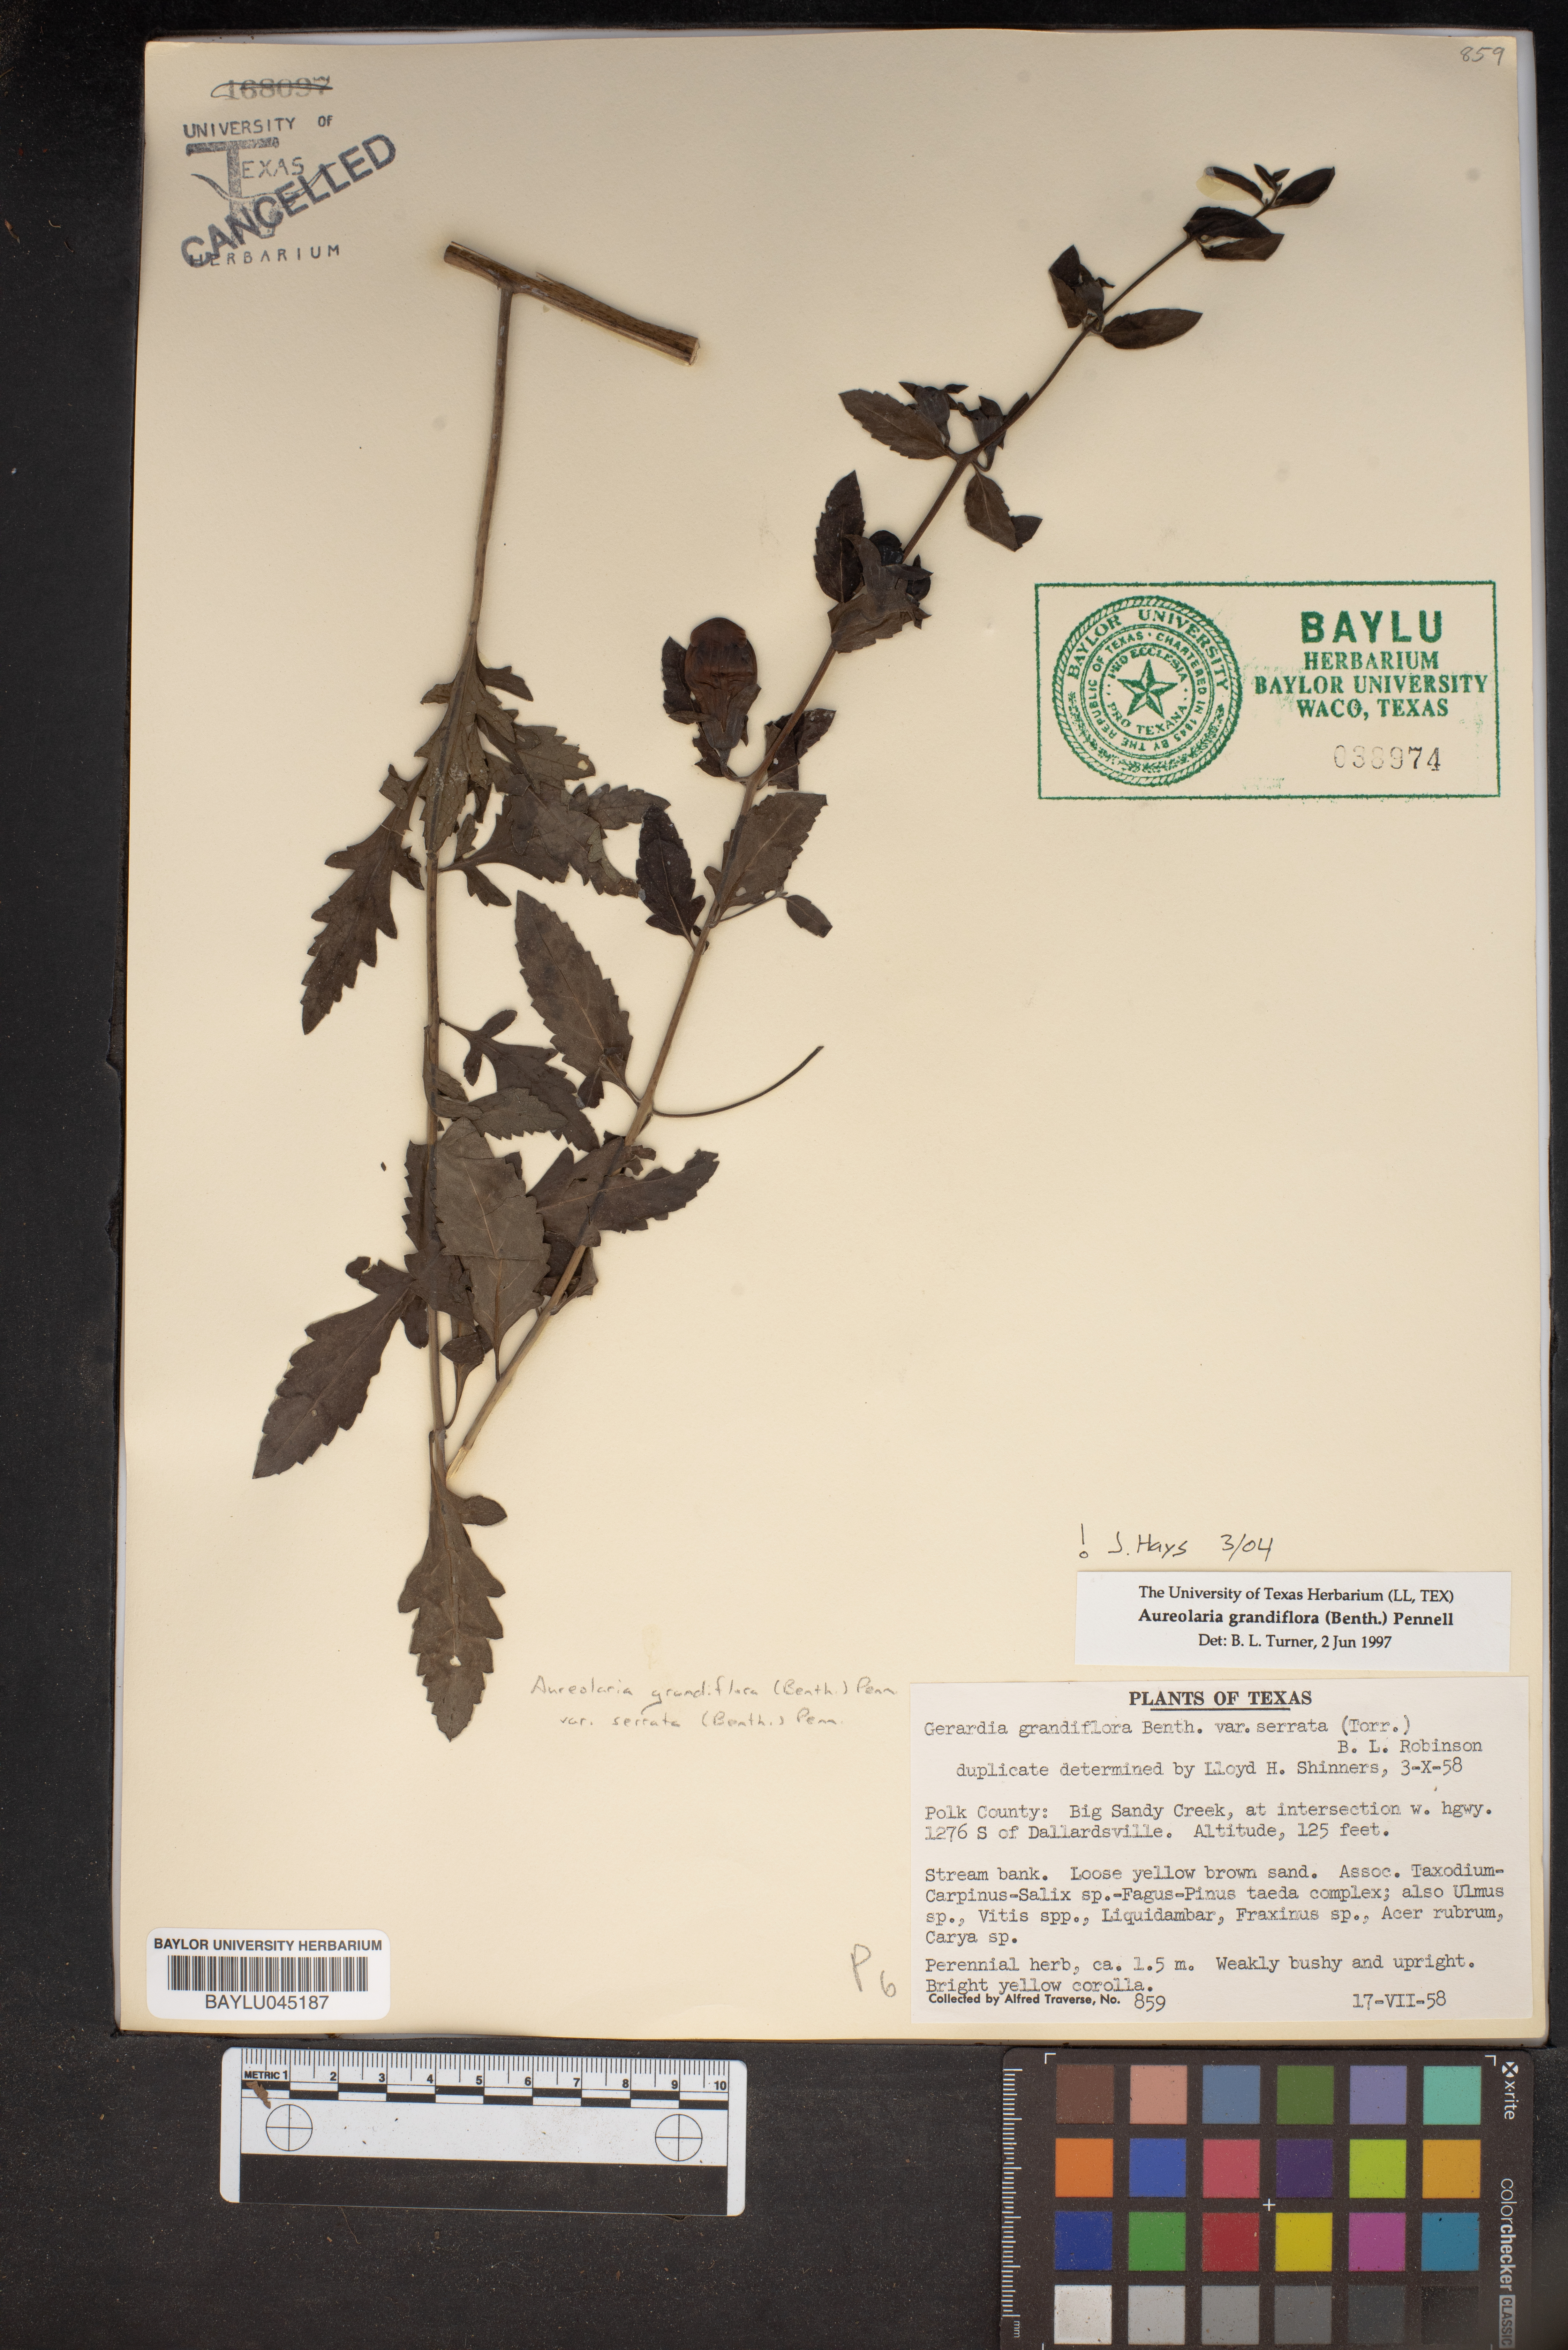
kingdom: Plantae
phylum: Tracheophyta
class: Magnoliopsida
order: Lamiales
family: Orobanchaceae
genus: Aureolaria
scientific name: Aureolaria grandiflora
